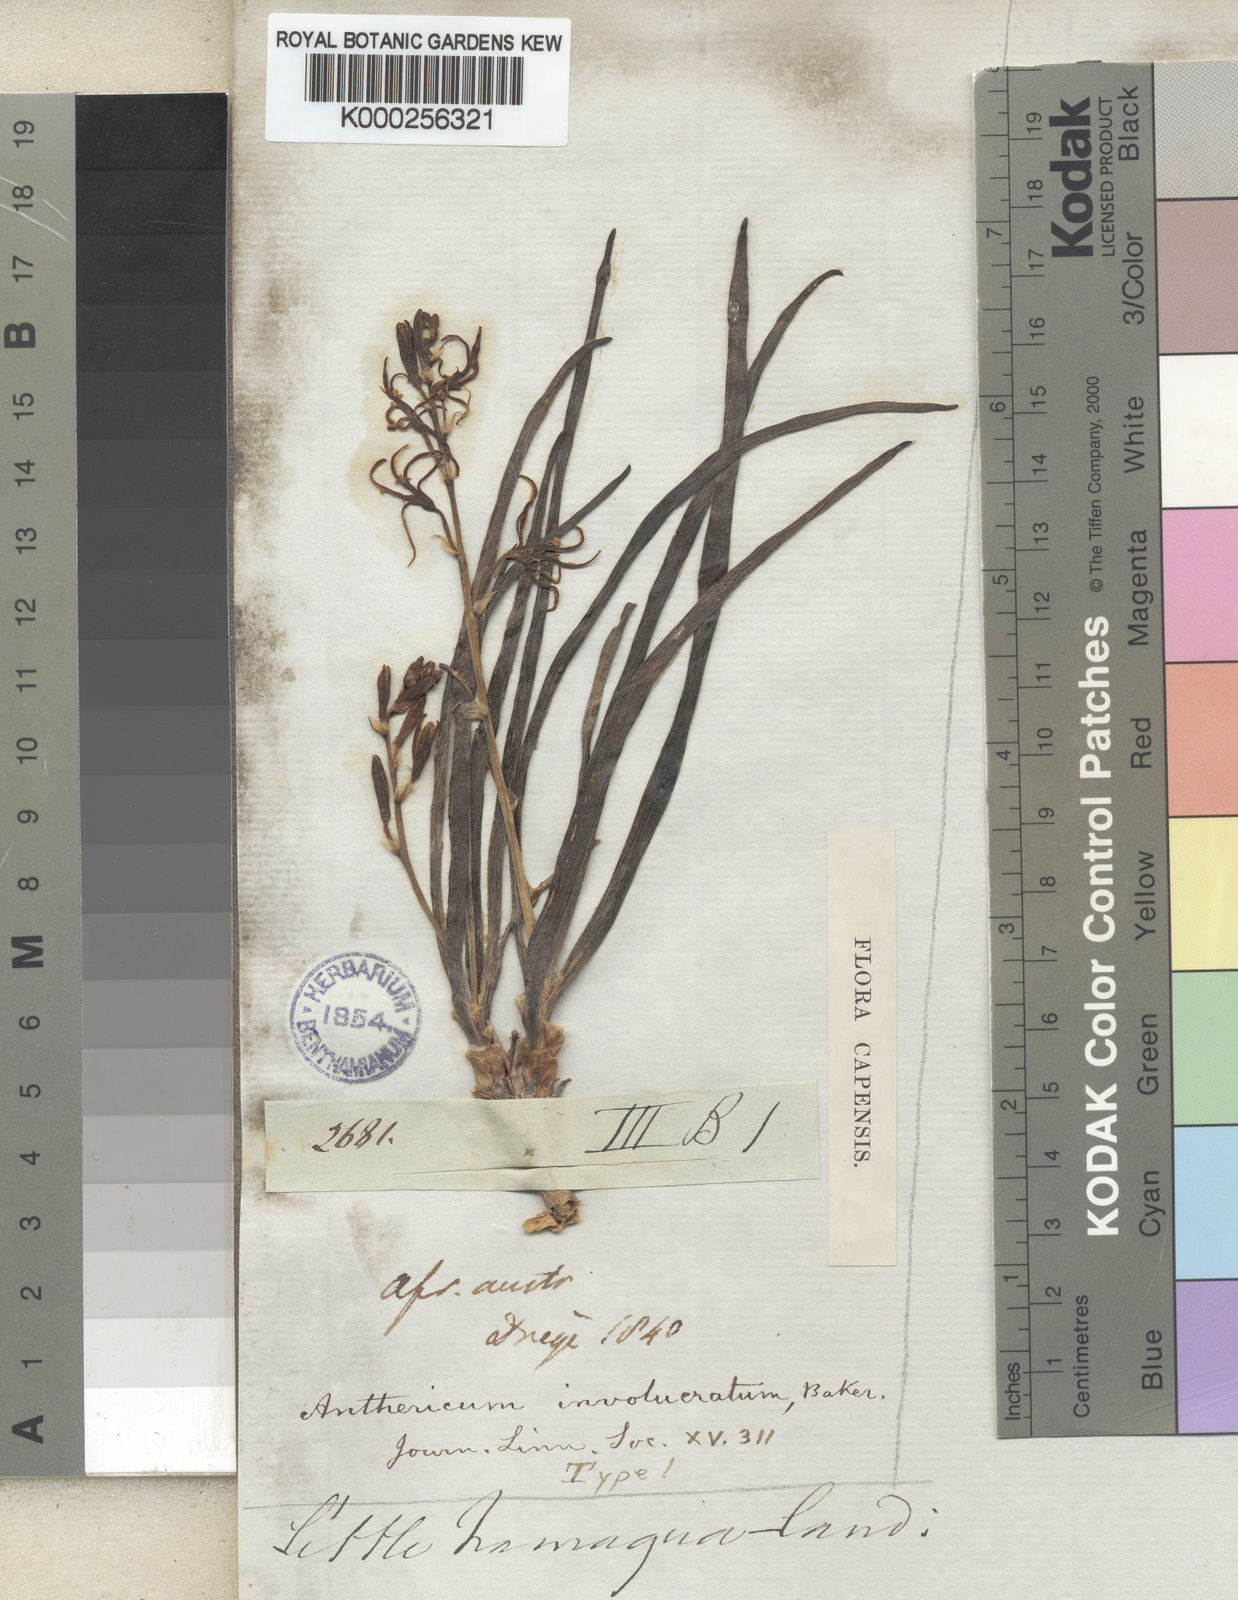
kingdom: Plantae
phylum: Tracheophyta
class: Liliopsida
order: Asparagales
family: Asphodelaceae
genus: Trachyandra
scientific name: Trachyandra involucrata
